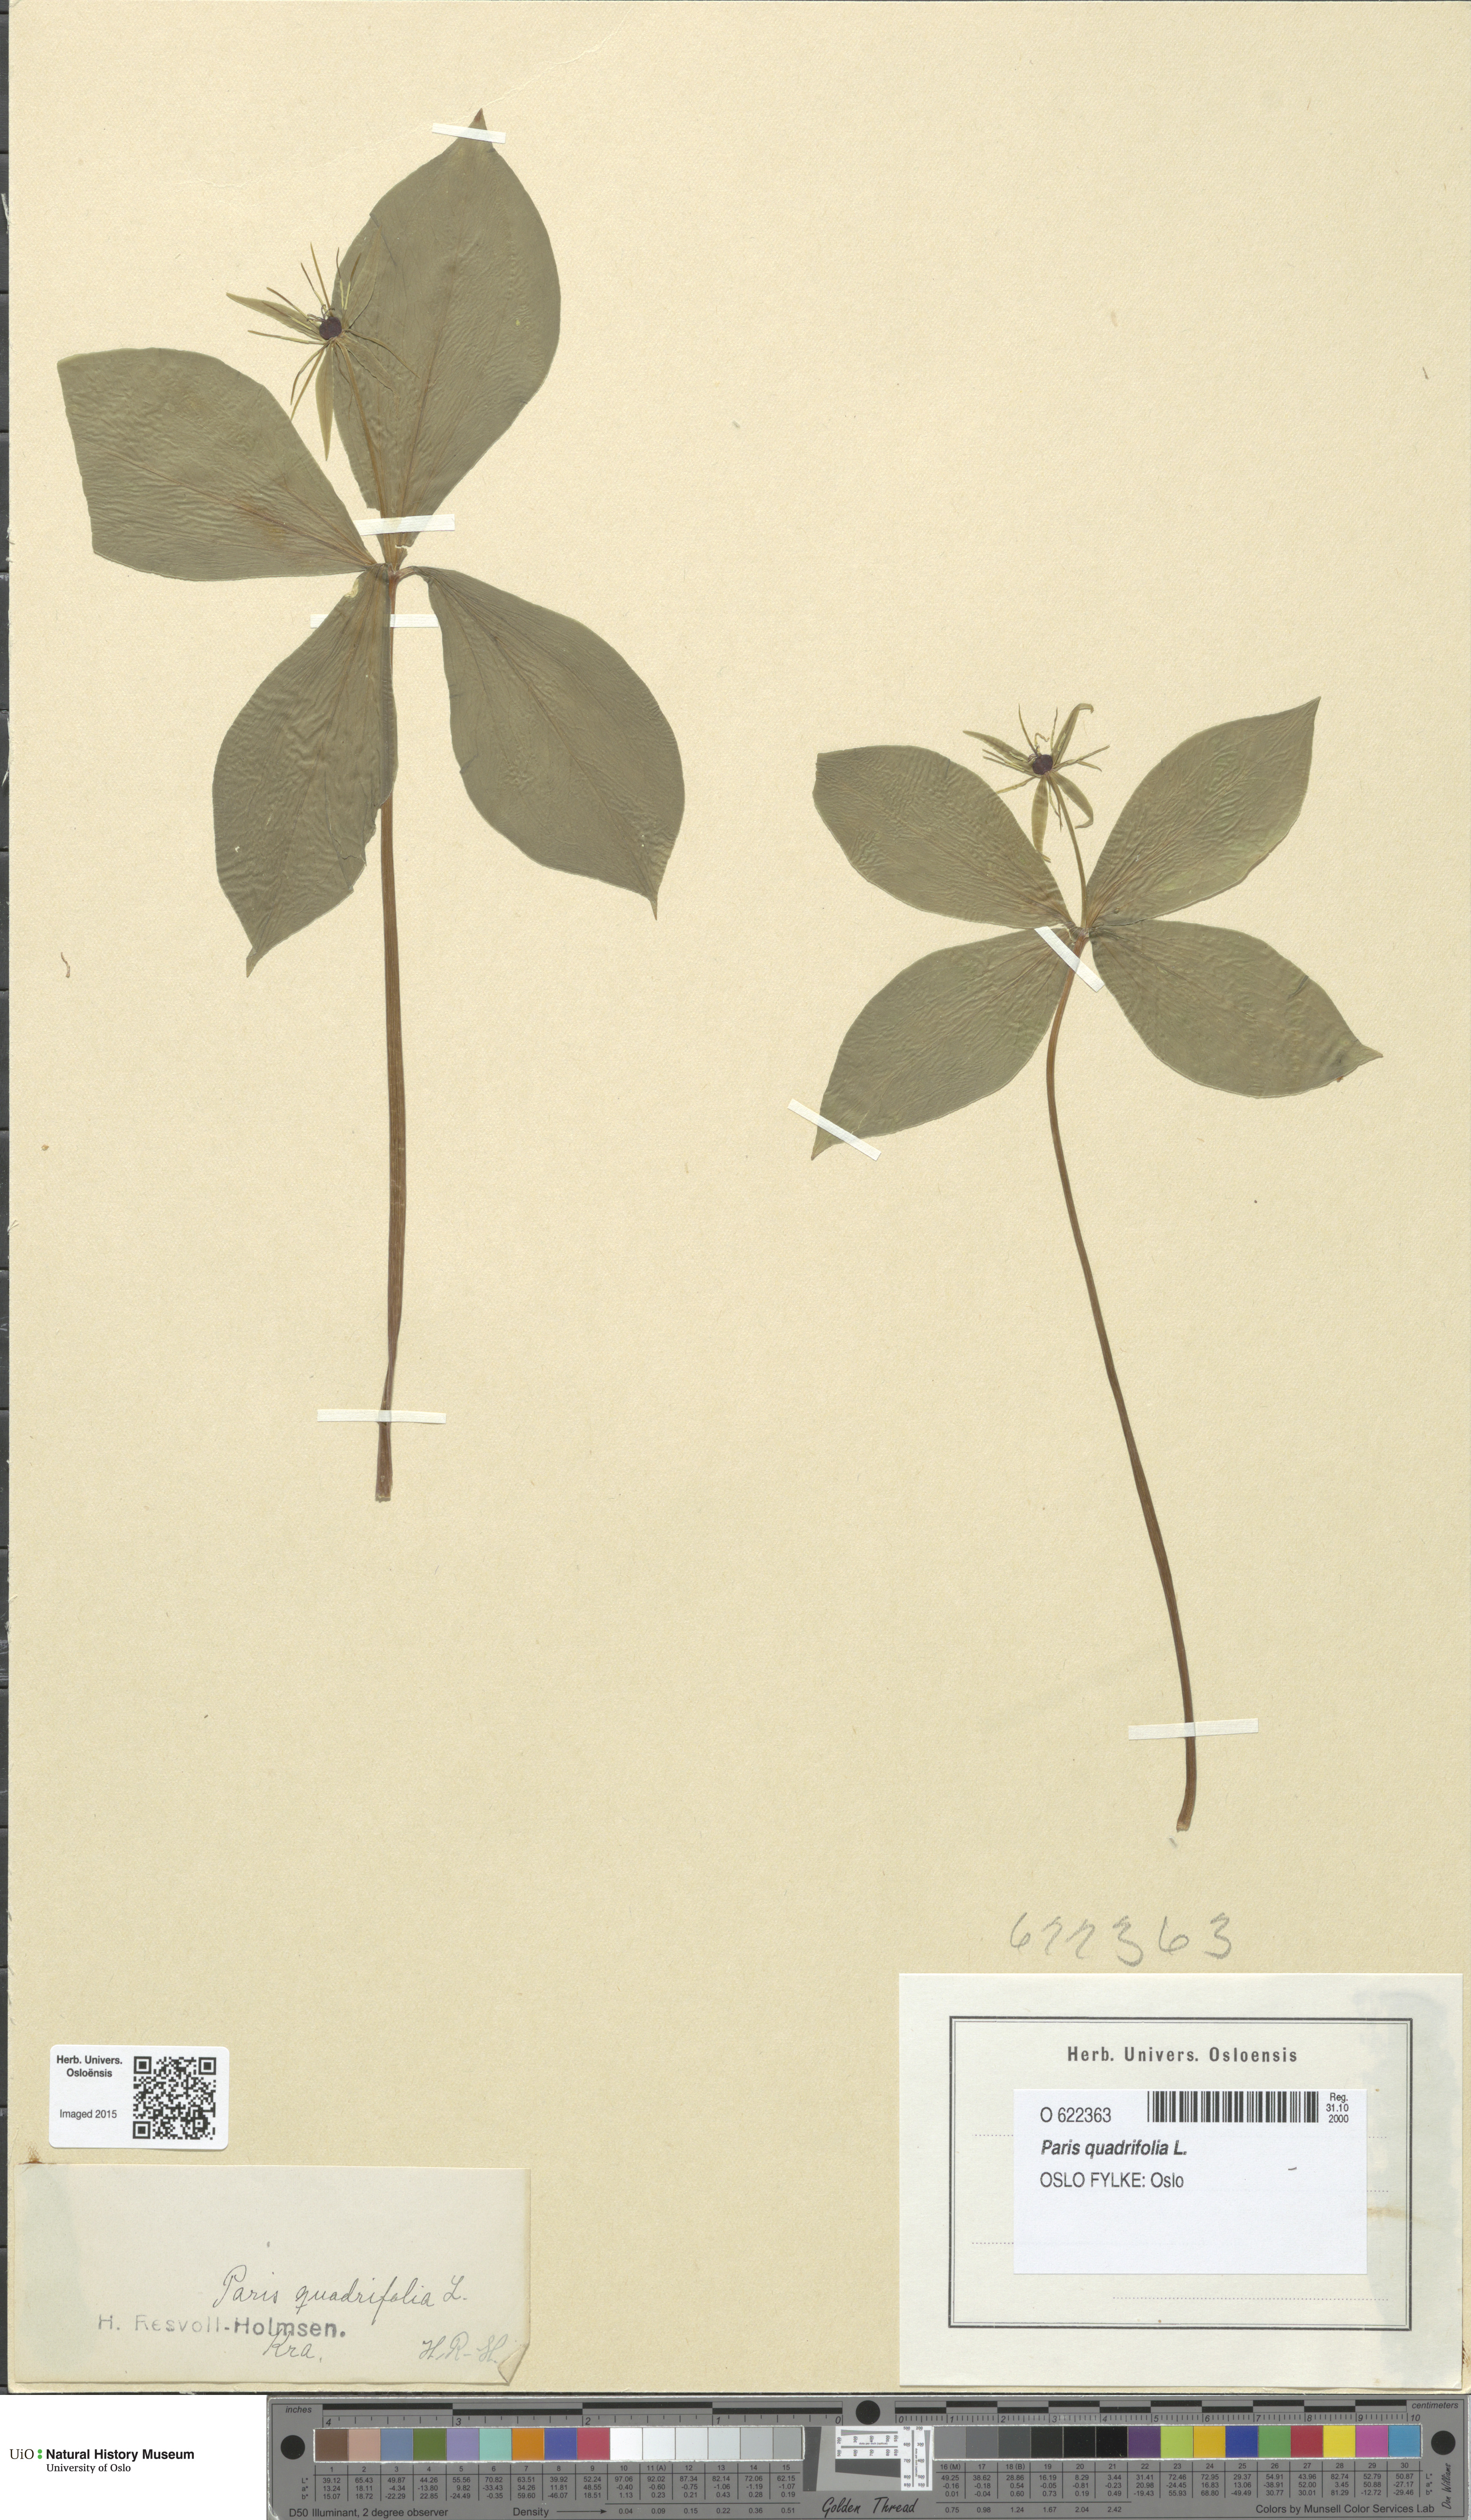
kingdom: Plantae
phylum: Tracheophyta
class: Liliopsida
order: Liliales
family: Melanthiaceae
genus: Paris
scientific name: Paris quadrifolia
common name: Herb-paris
